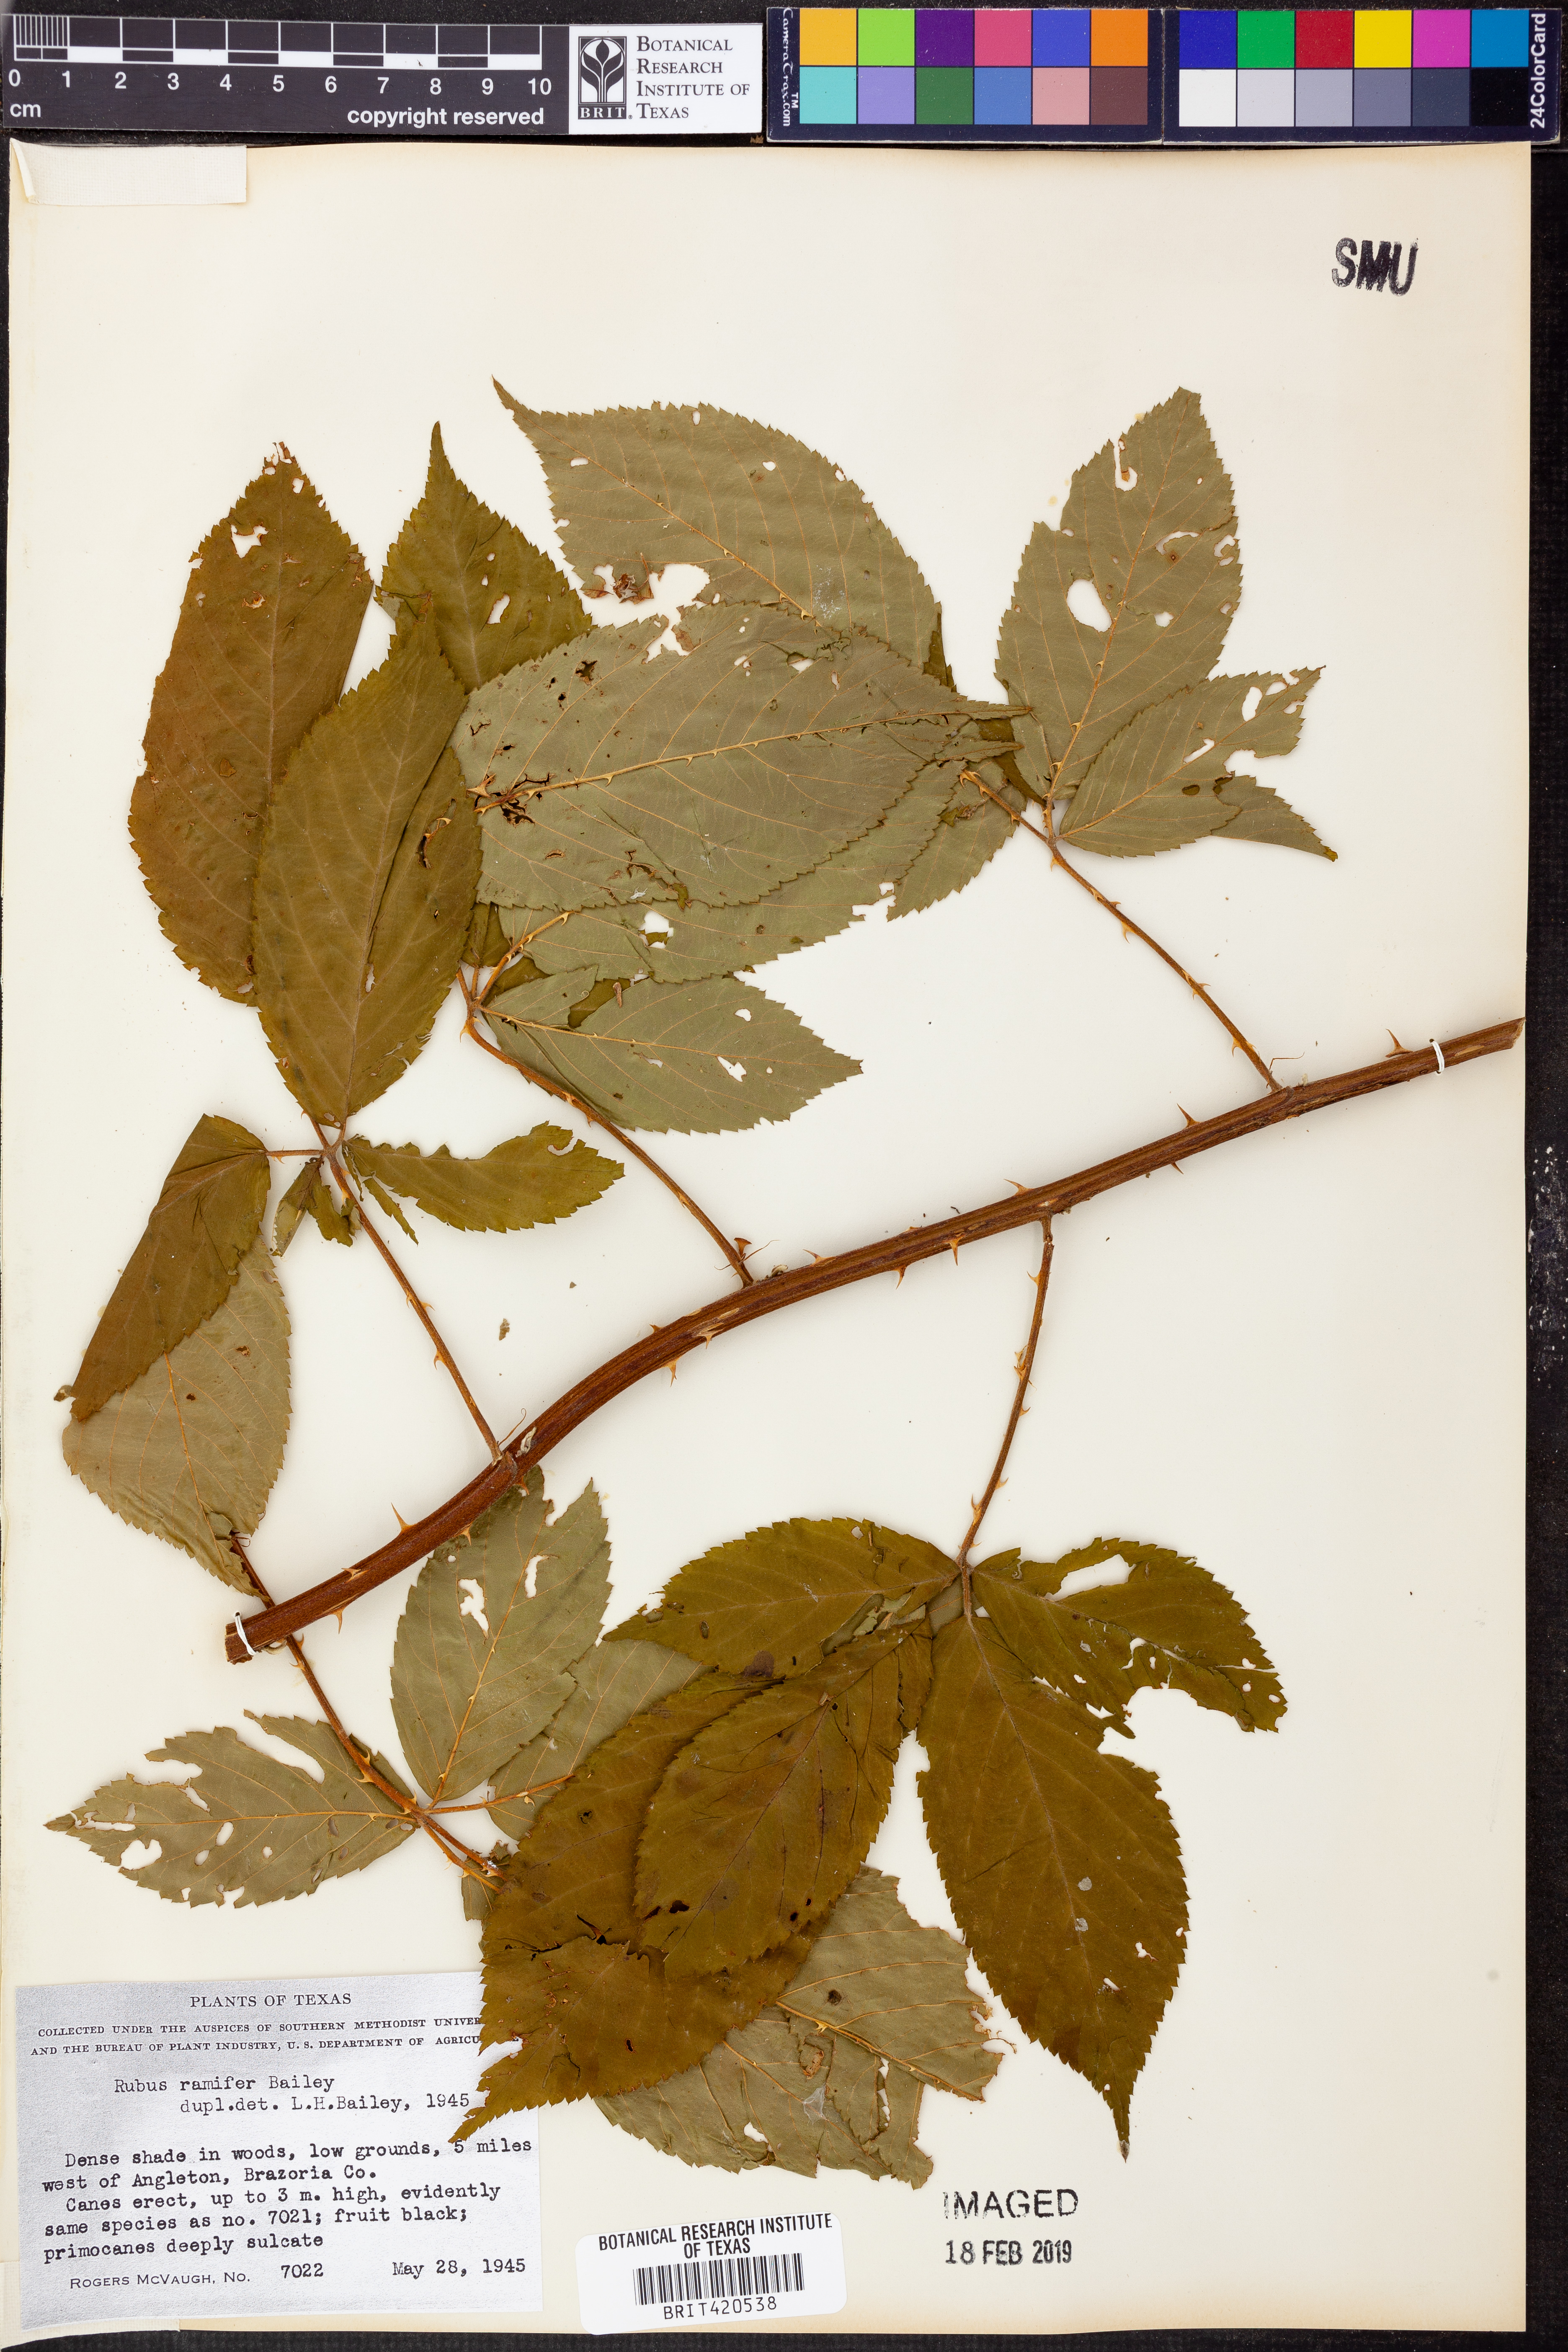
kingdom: Plantae
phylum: Tracheophyta
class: Magnoliopsida
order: Rosales
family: Rosaceae
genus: Rubus
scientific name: Rubus suus
